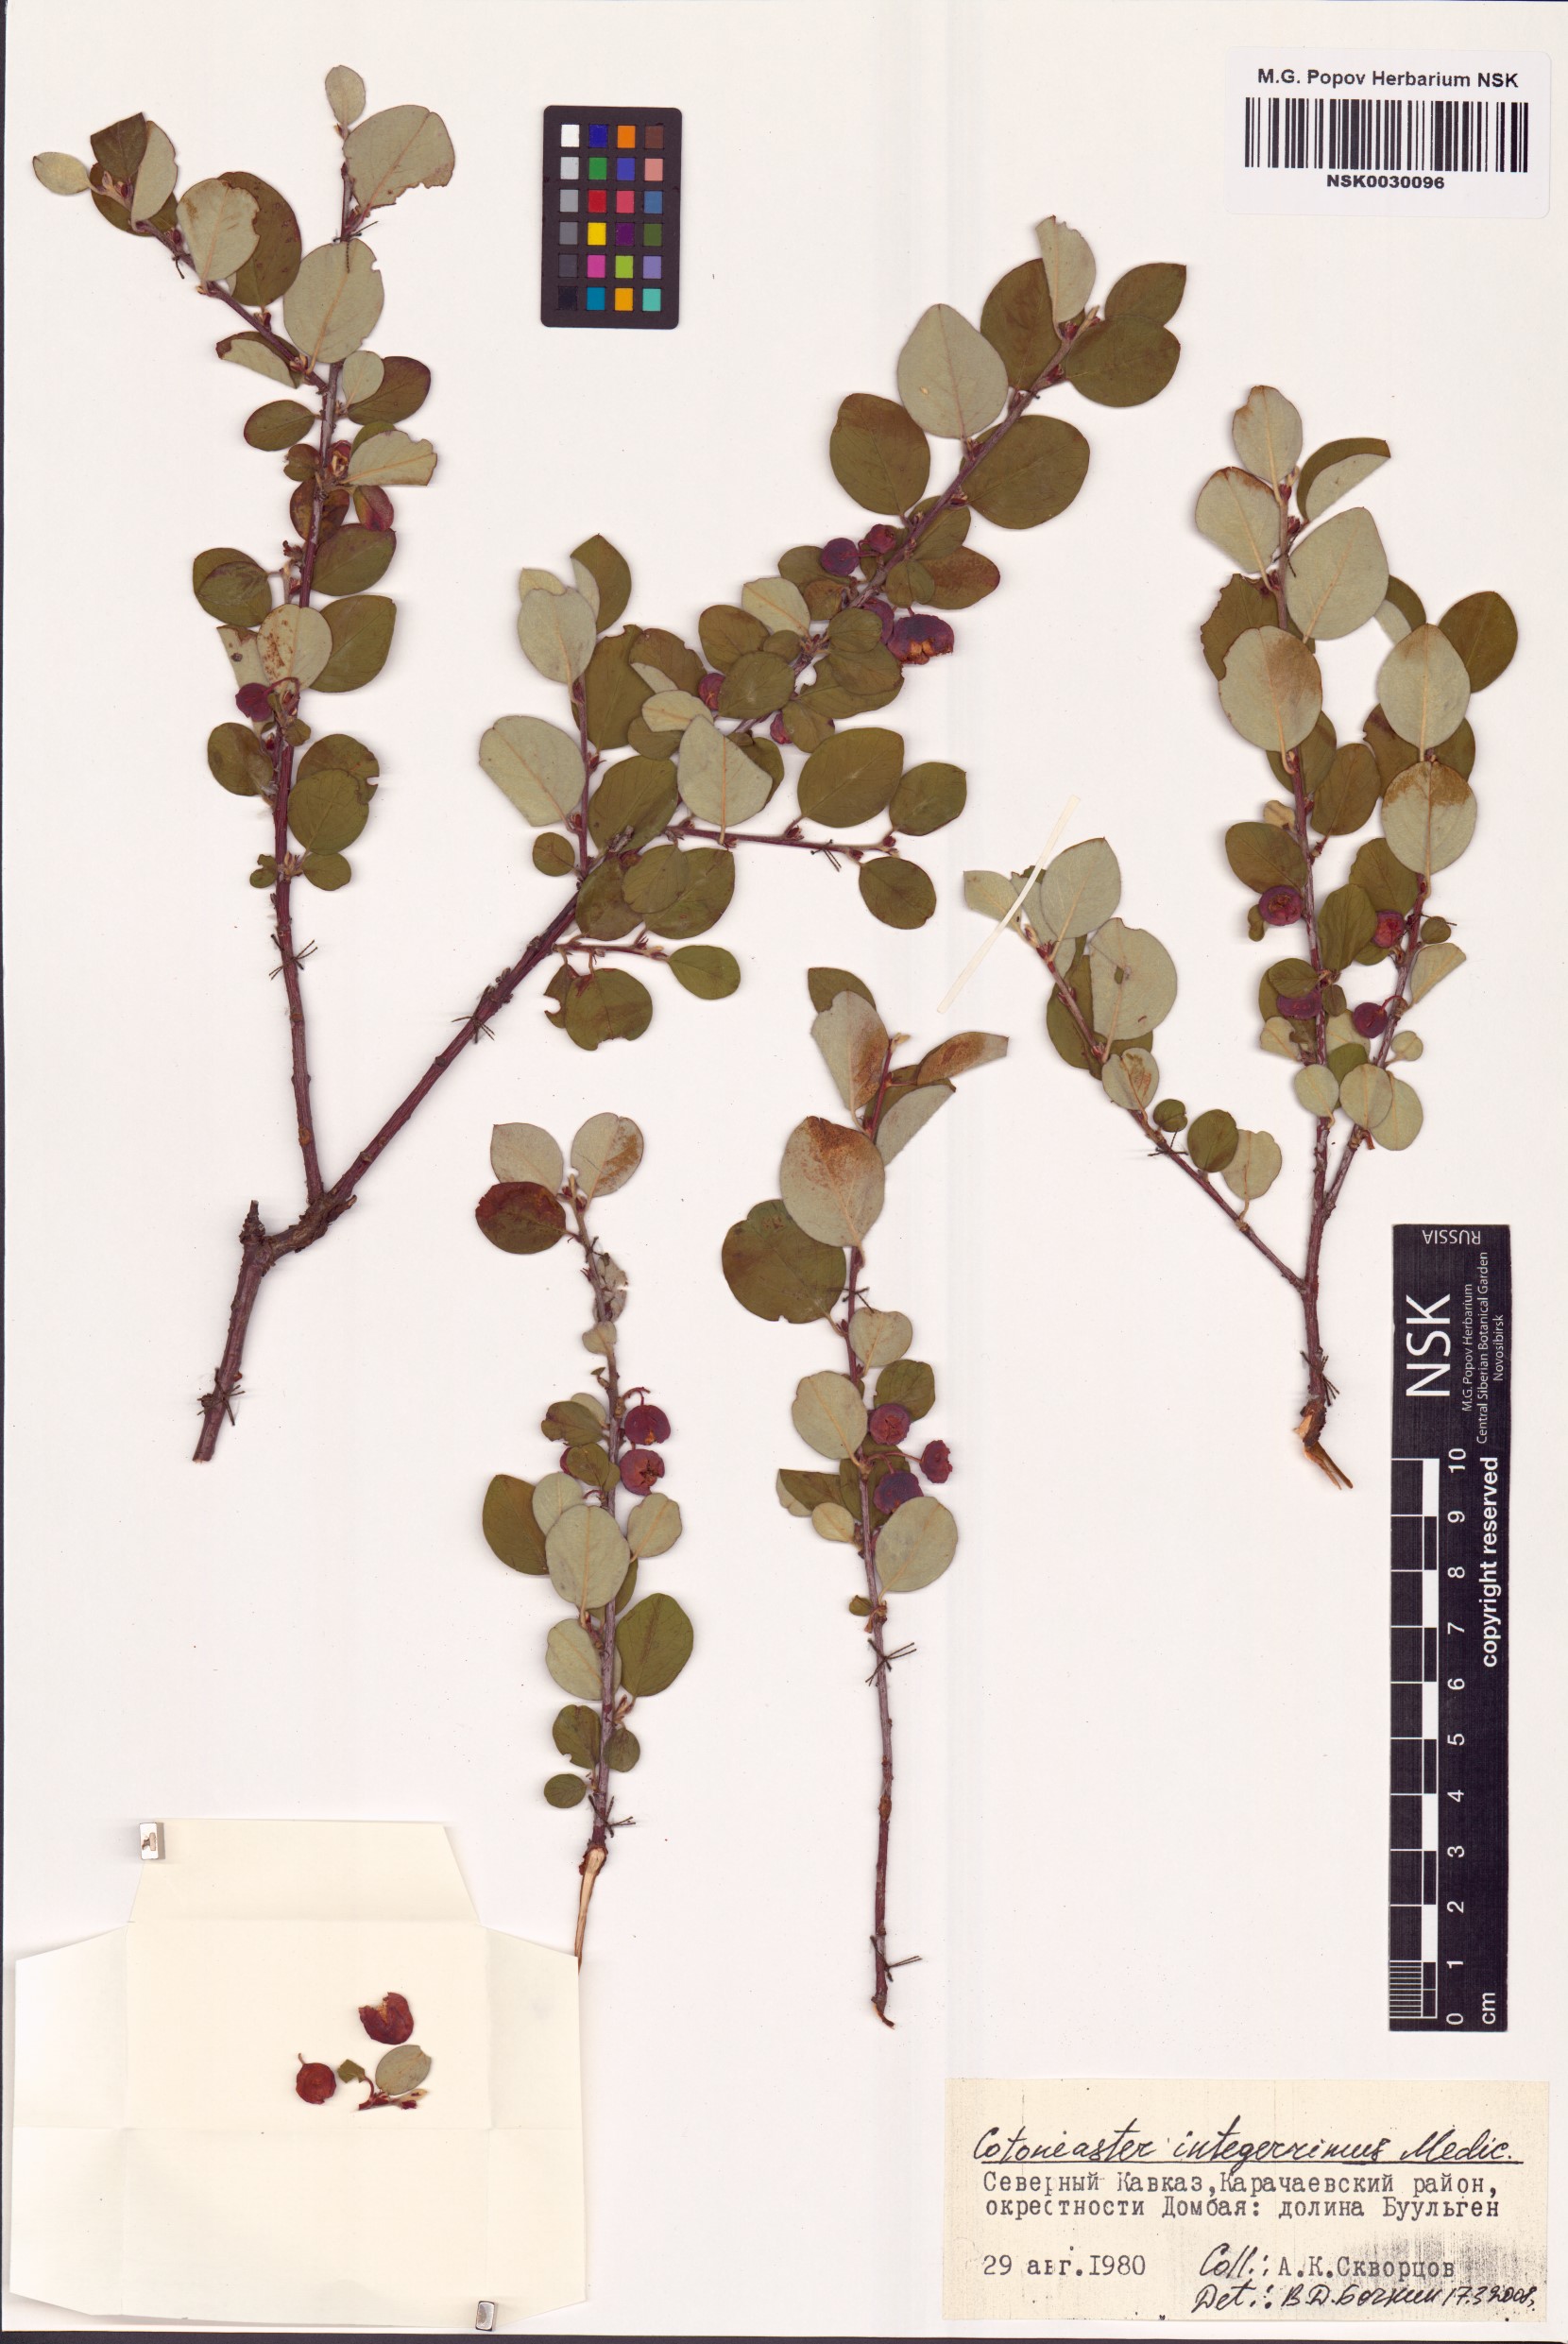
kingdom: Plantae
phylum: Tracheophyta
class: Magnoliopsida
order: Rosales
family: Rosaceae
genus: Cotoneaster
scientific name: Cotoneaster integerrimus
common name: Wild cotoneaster
